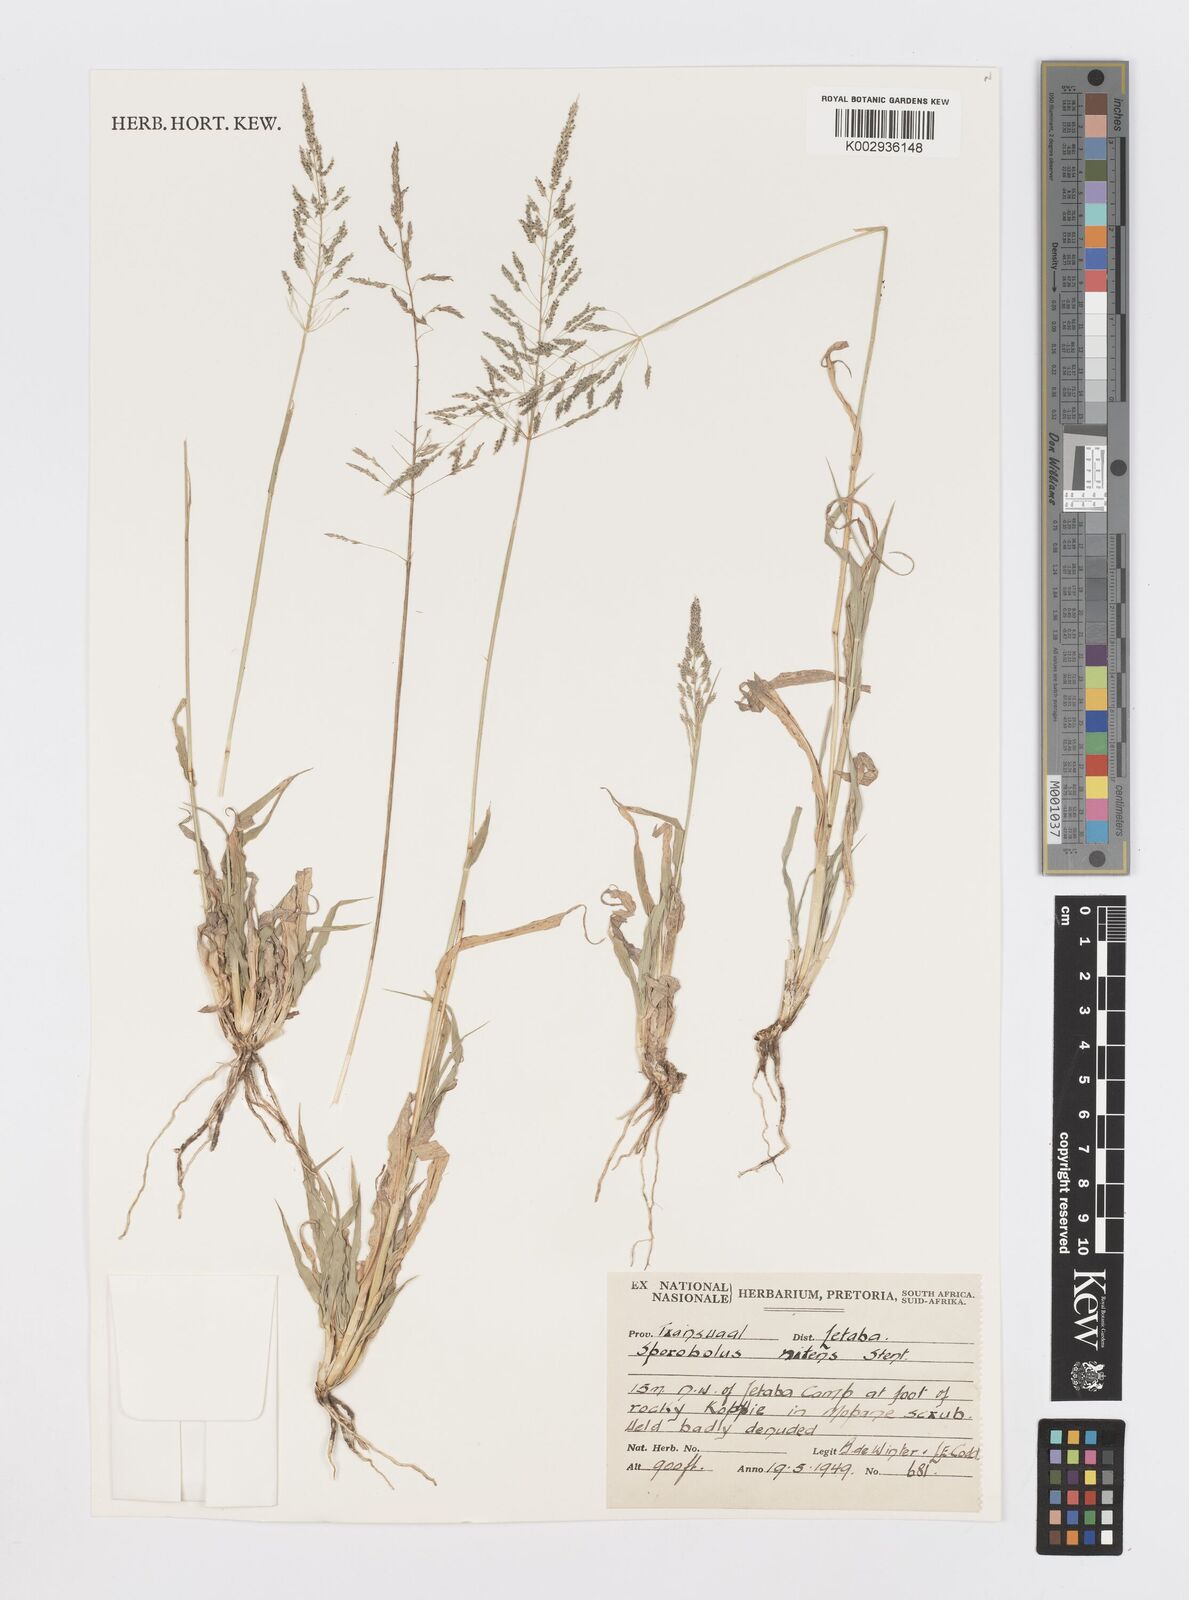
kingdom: Plantae
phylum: Tracheophyta
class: Liliopsida
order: Poales
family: Poaceae
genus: Sporobolus
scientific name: Sporobolus nitens
